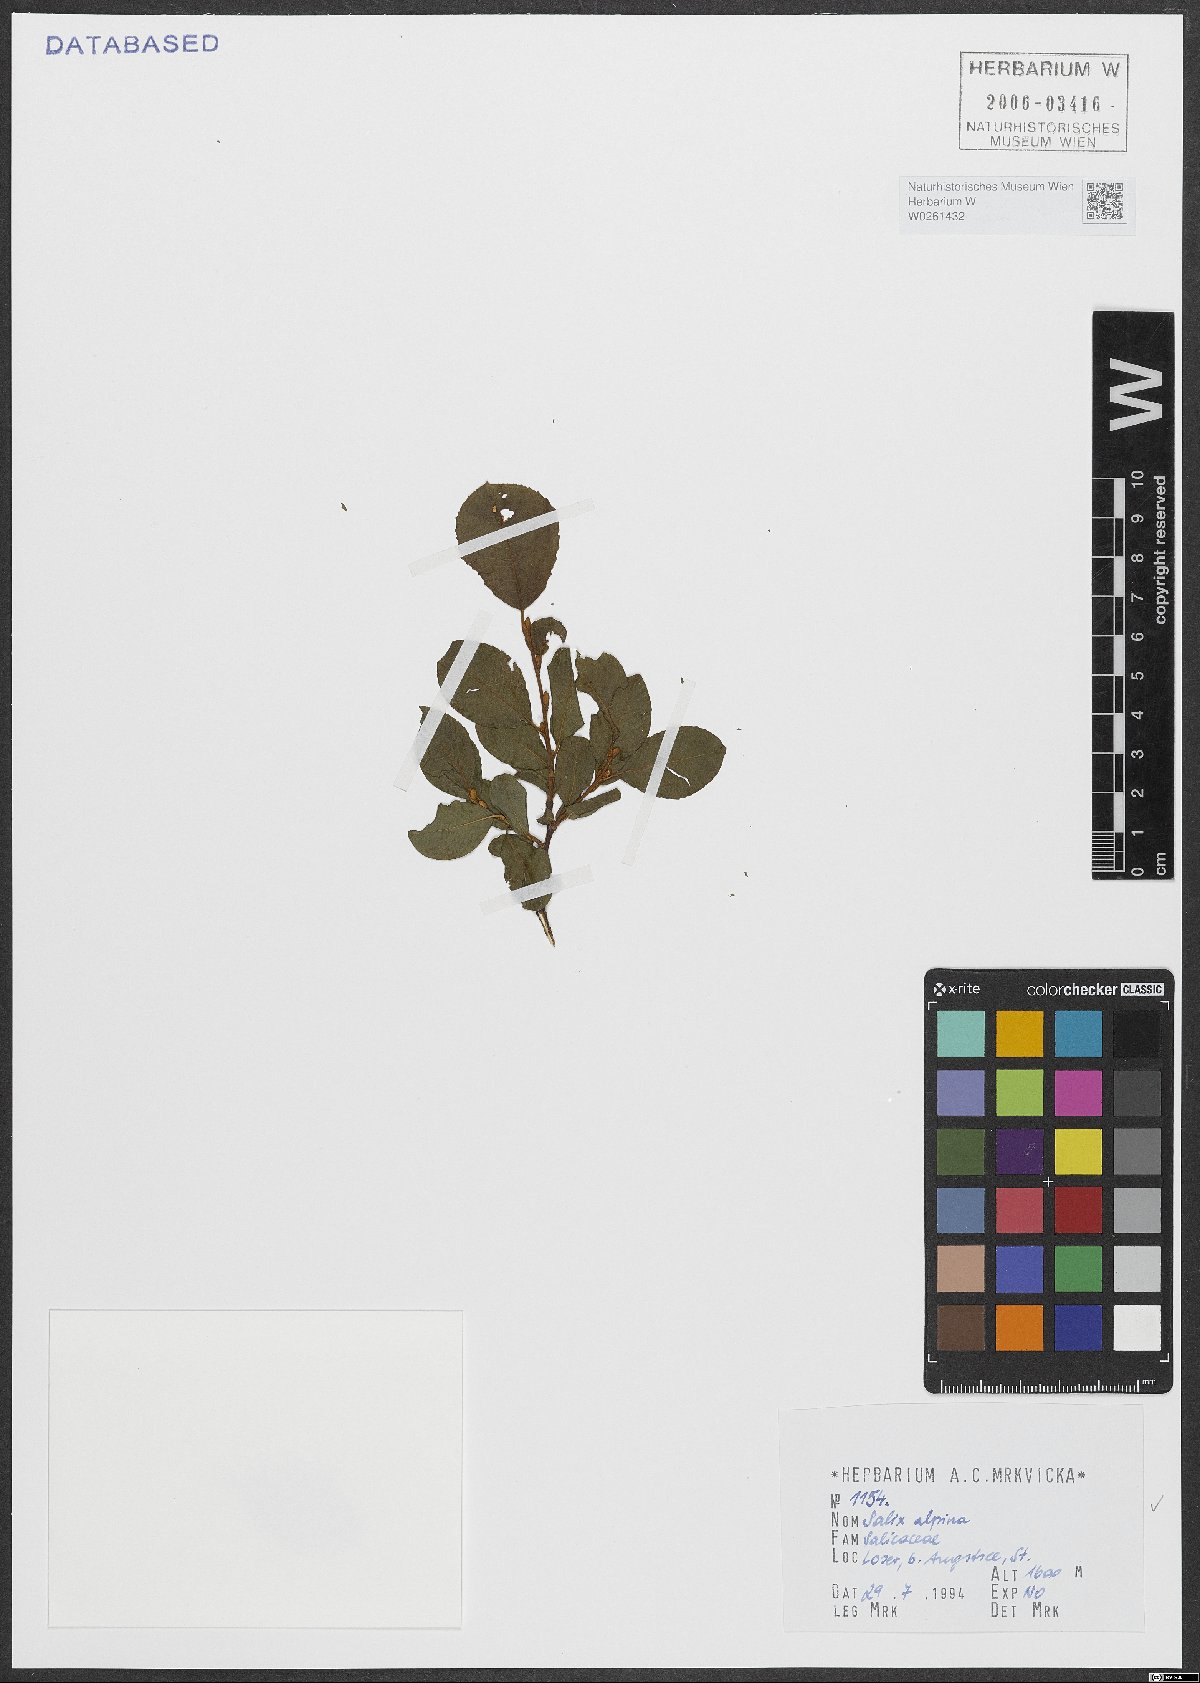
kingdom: Plantae
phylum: Tracheophyta
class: Magnoliopsida
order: Malpighiales
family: Salicaceae
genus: Salix
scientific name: Salix alpina
